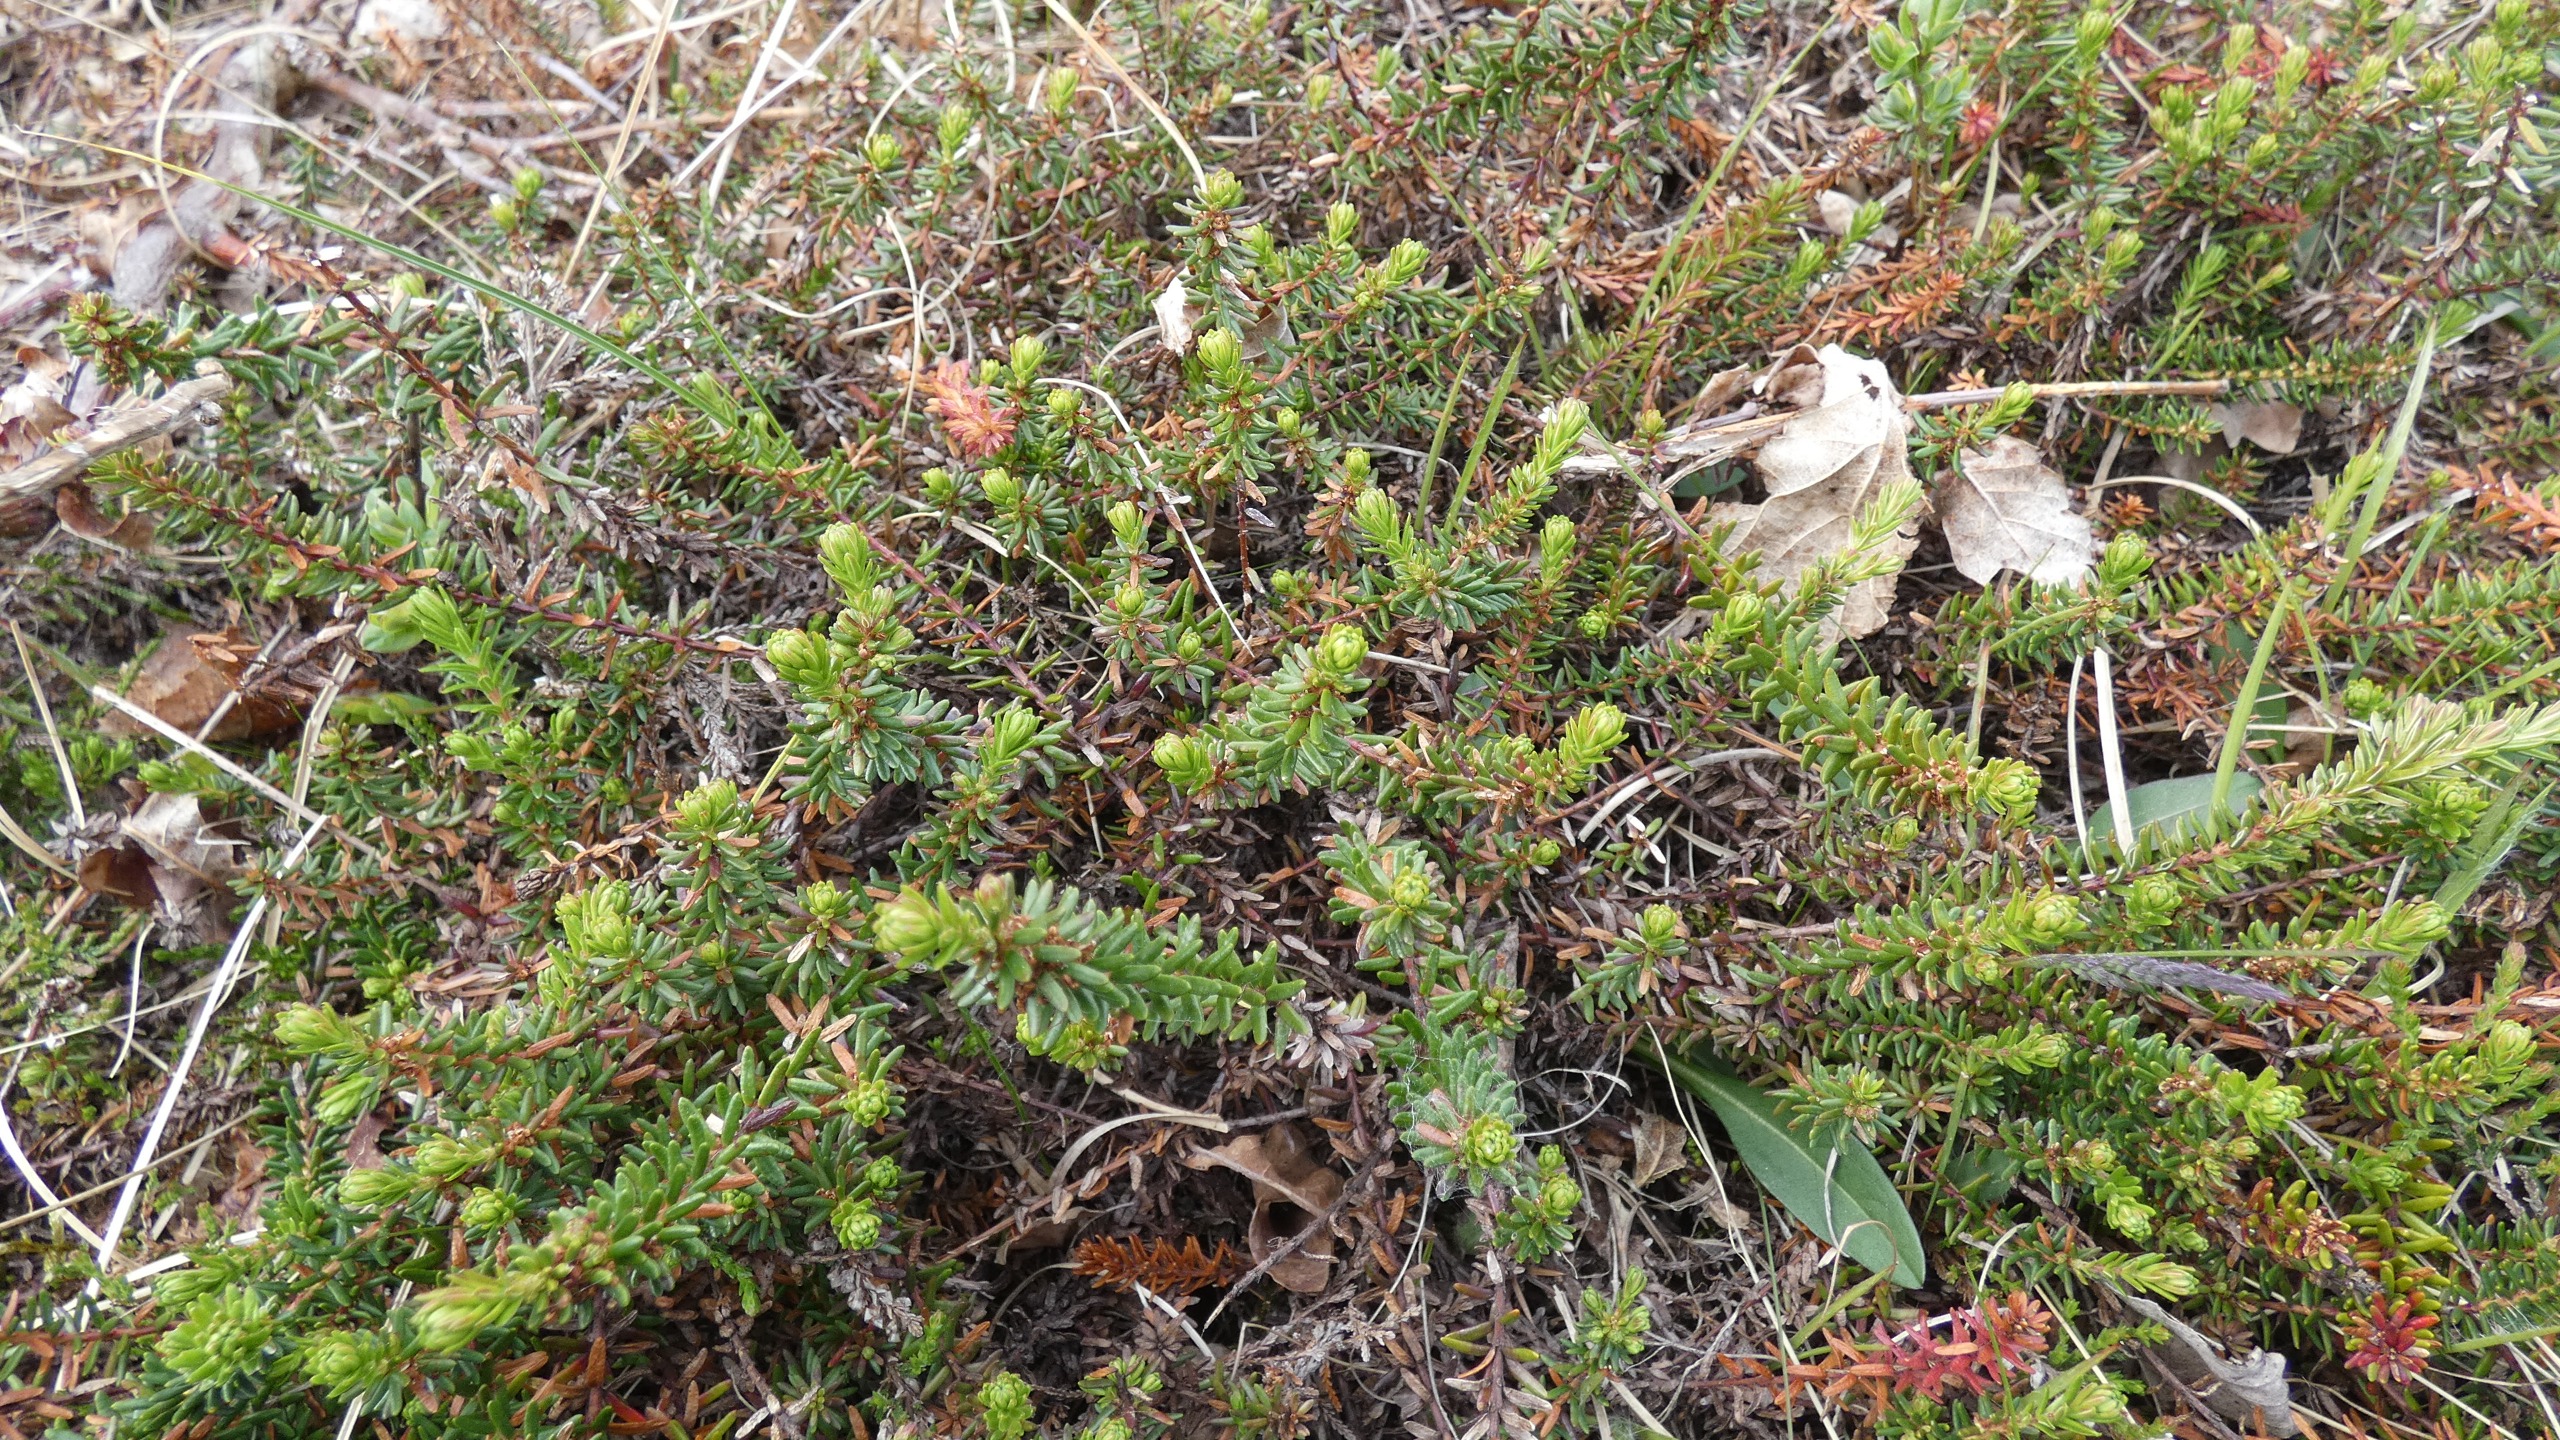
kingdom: Plantae
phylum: Tracheophyta
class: Magnoliopsida
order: Ericales
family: Ericaceae
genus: Empetrum
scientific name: Empetrum nigrum
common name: Revling
